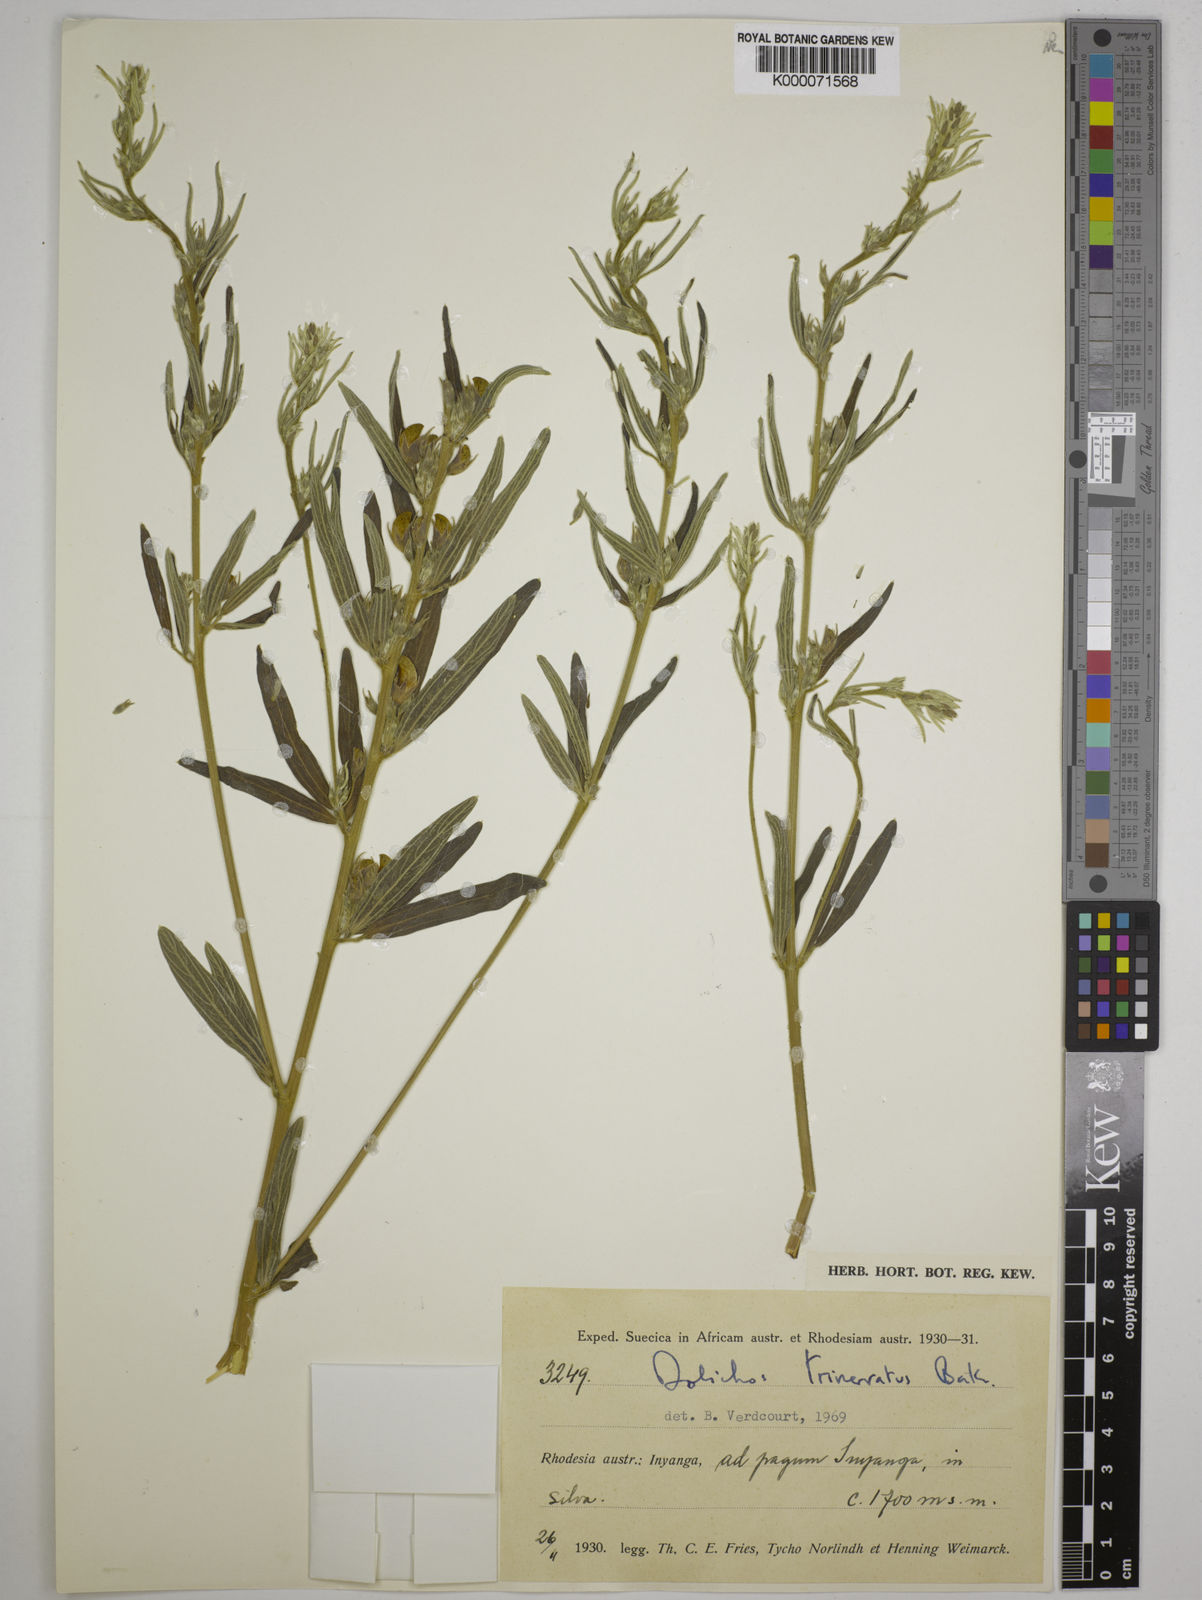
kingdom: Plantae
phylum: Tracheophyta
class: Magnoliopsida
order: Fabales
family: Fabaceae
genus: Dolichos
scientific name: Dolichos trinervatus
